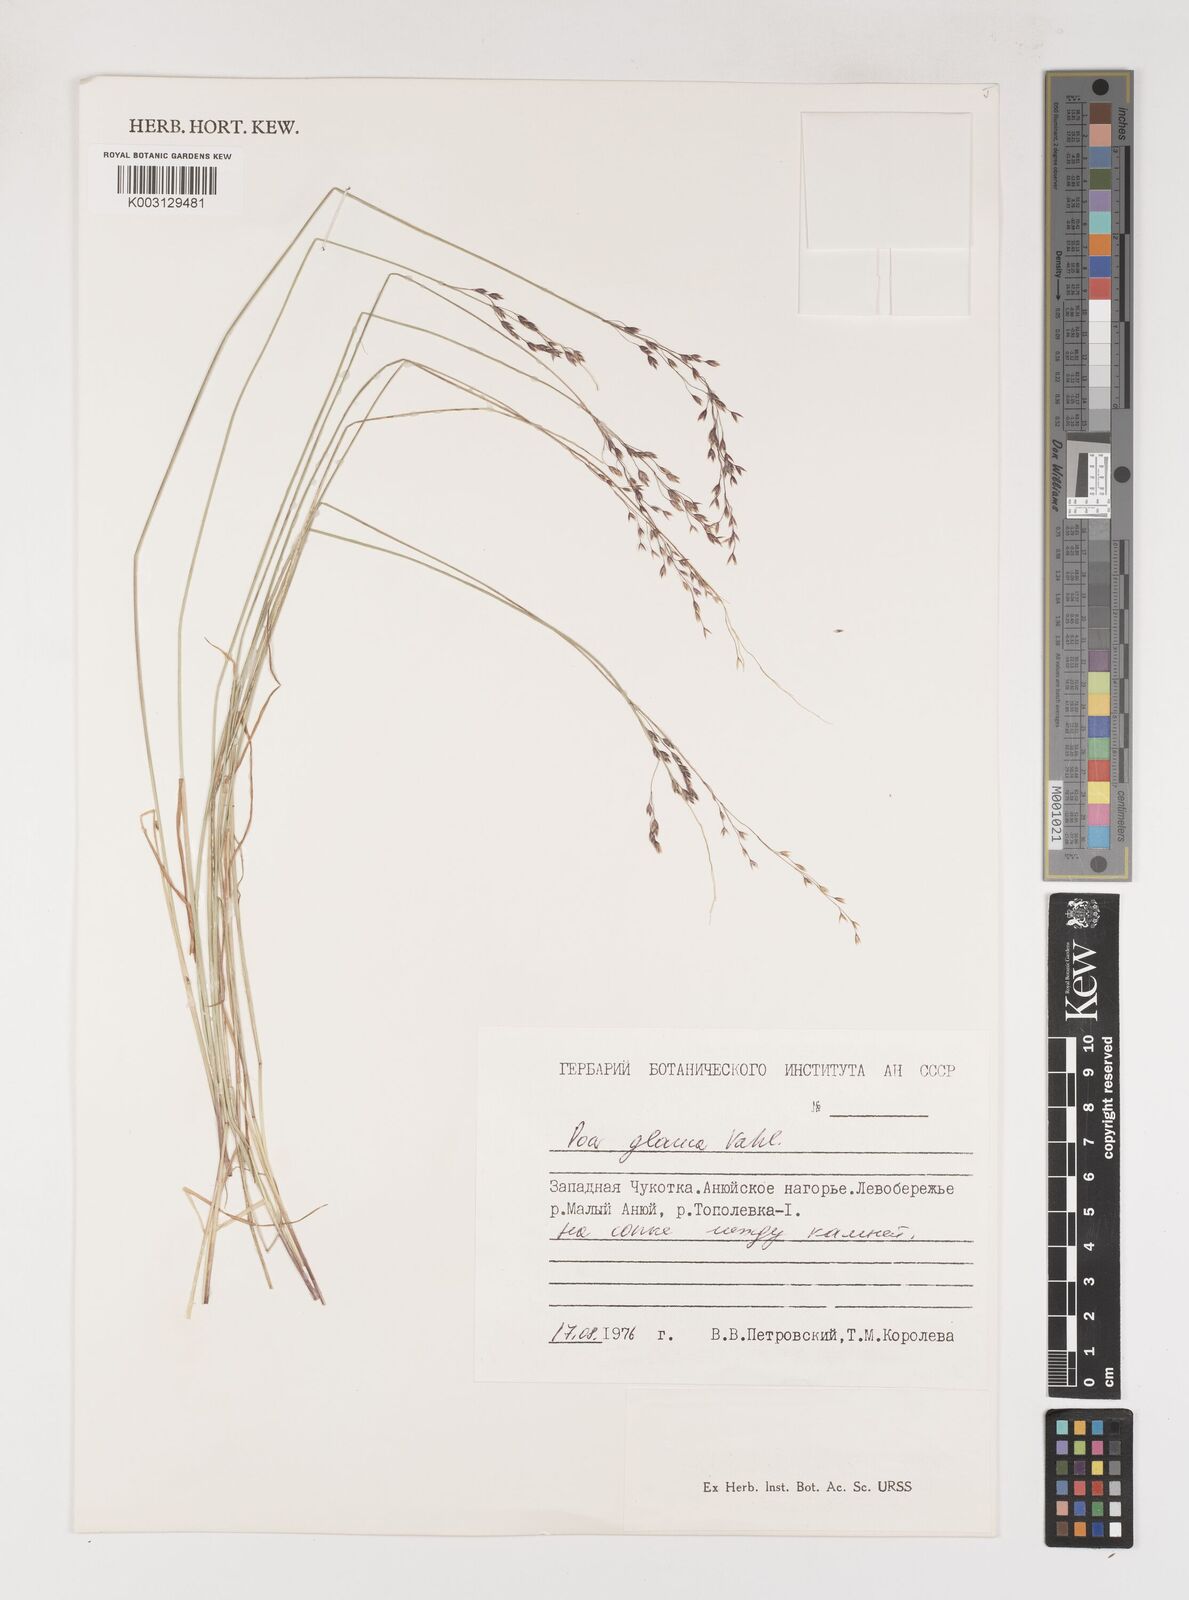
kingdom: Plantae
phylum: Tracheophyta
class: Liliopsida
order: Poales
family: Poaceae
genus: Poa
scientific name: Poa glauca
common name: Glaucous bluegrass
